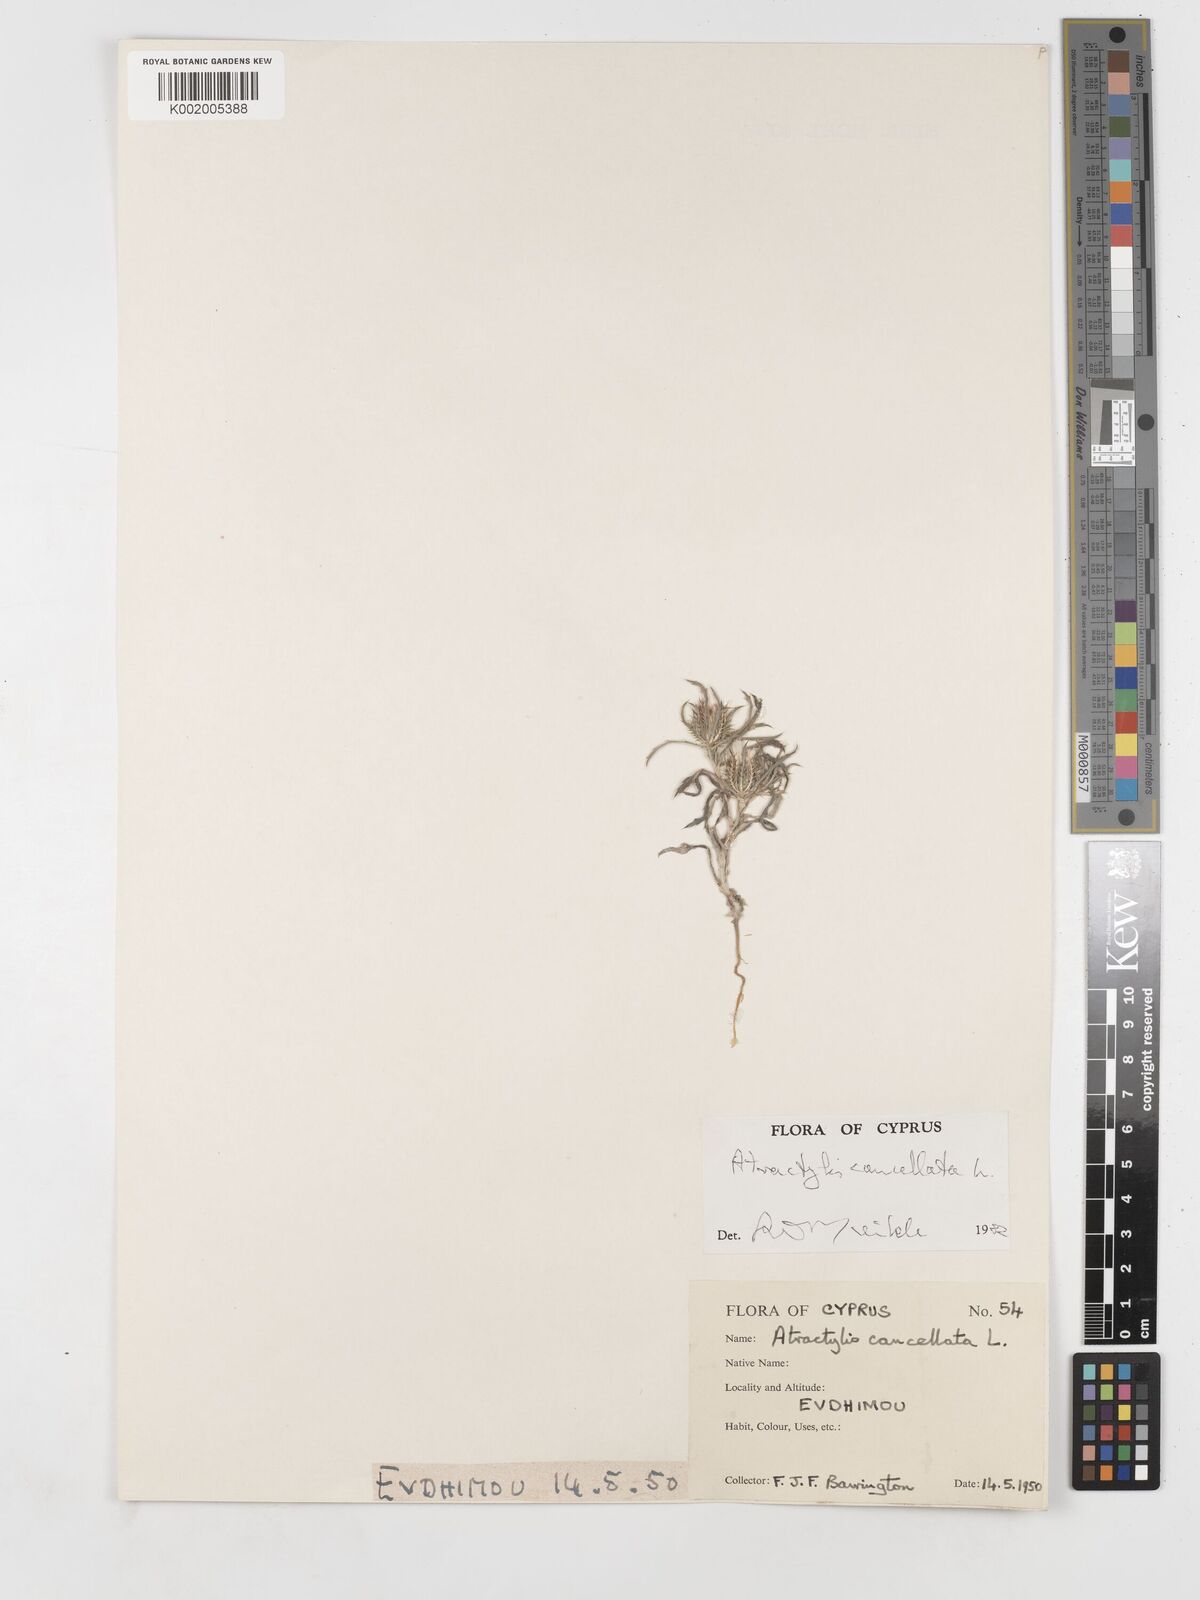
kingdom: Plantae
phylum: Tracheophyta
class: Magnoliopsida
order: Asterales
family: Asteraceae
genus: Atractylis
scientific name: Atractylis cancellata
